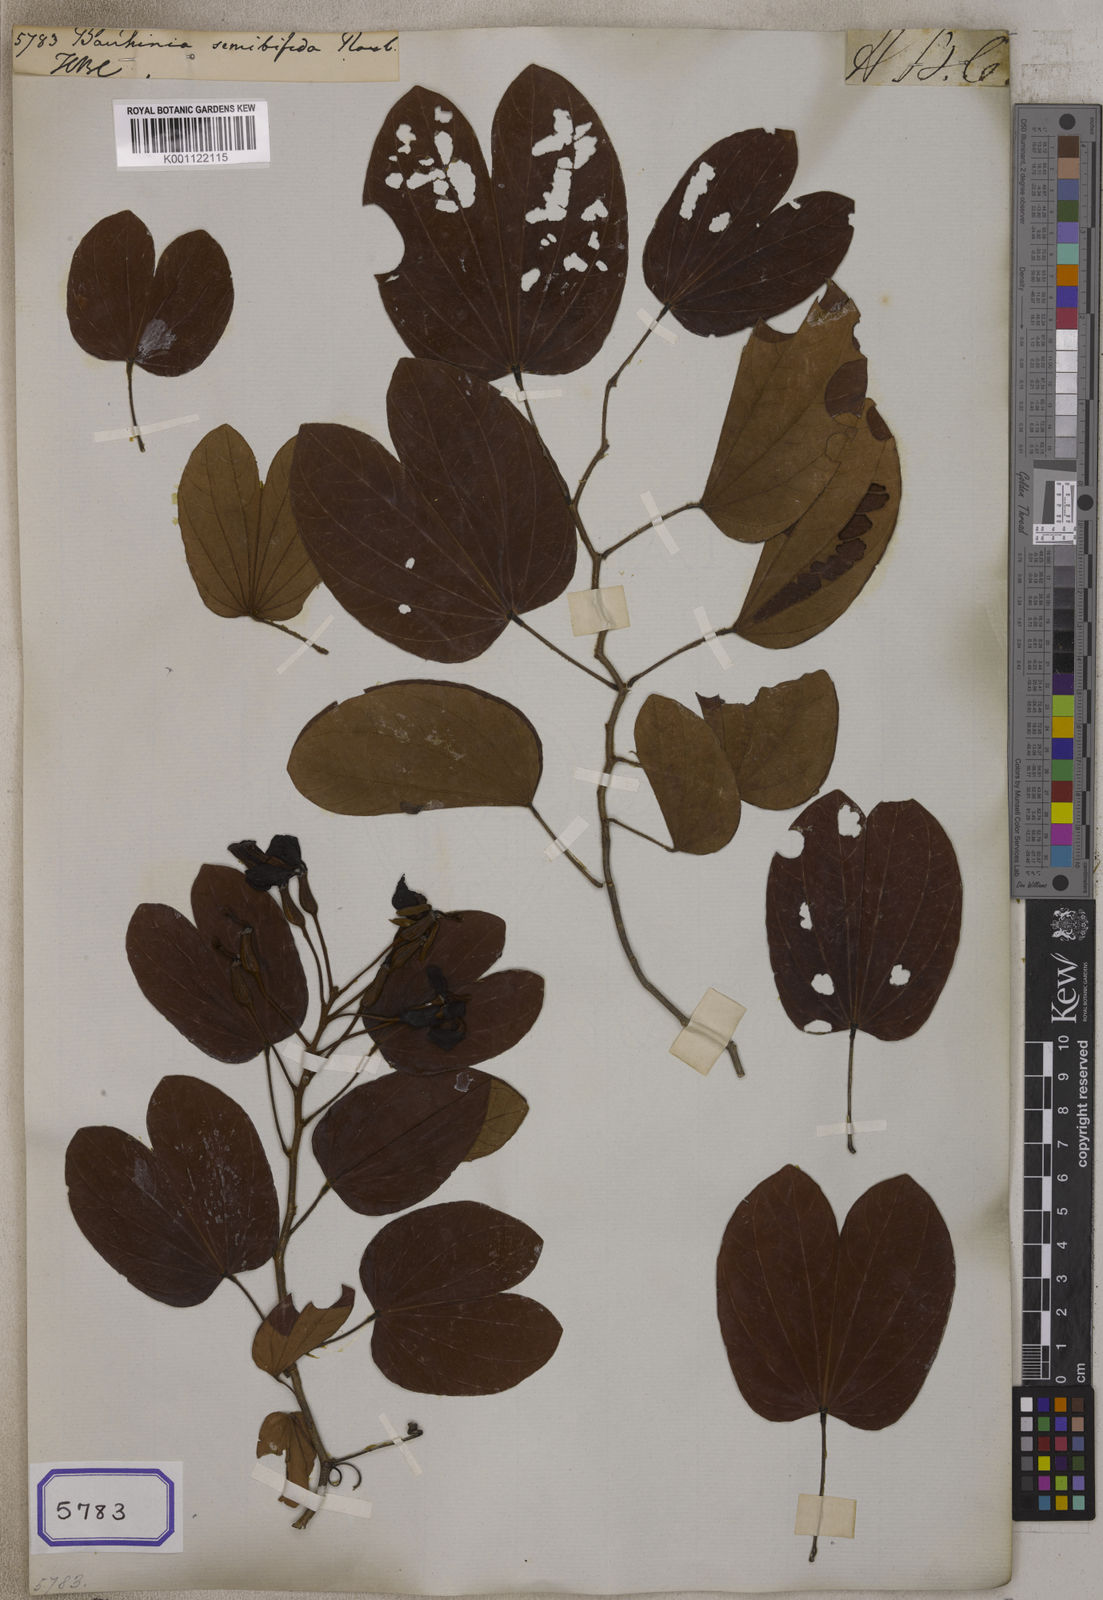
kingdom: Plantae
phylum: Tracheophyta
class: Magnoliopsida
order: Fabales
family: Fabaceae
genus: Phanera
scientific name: Phanera semibifida
